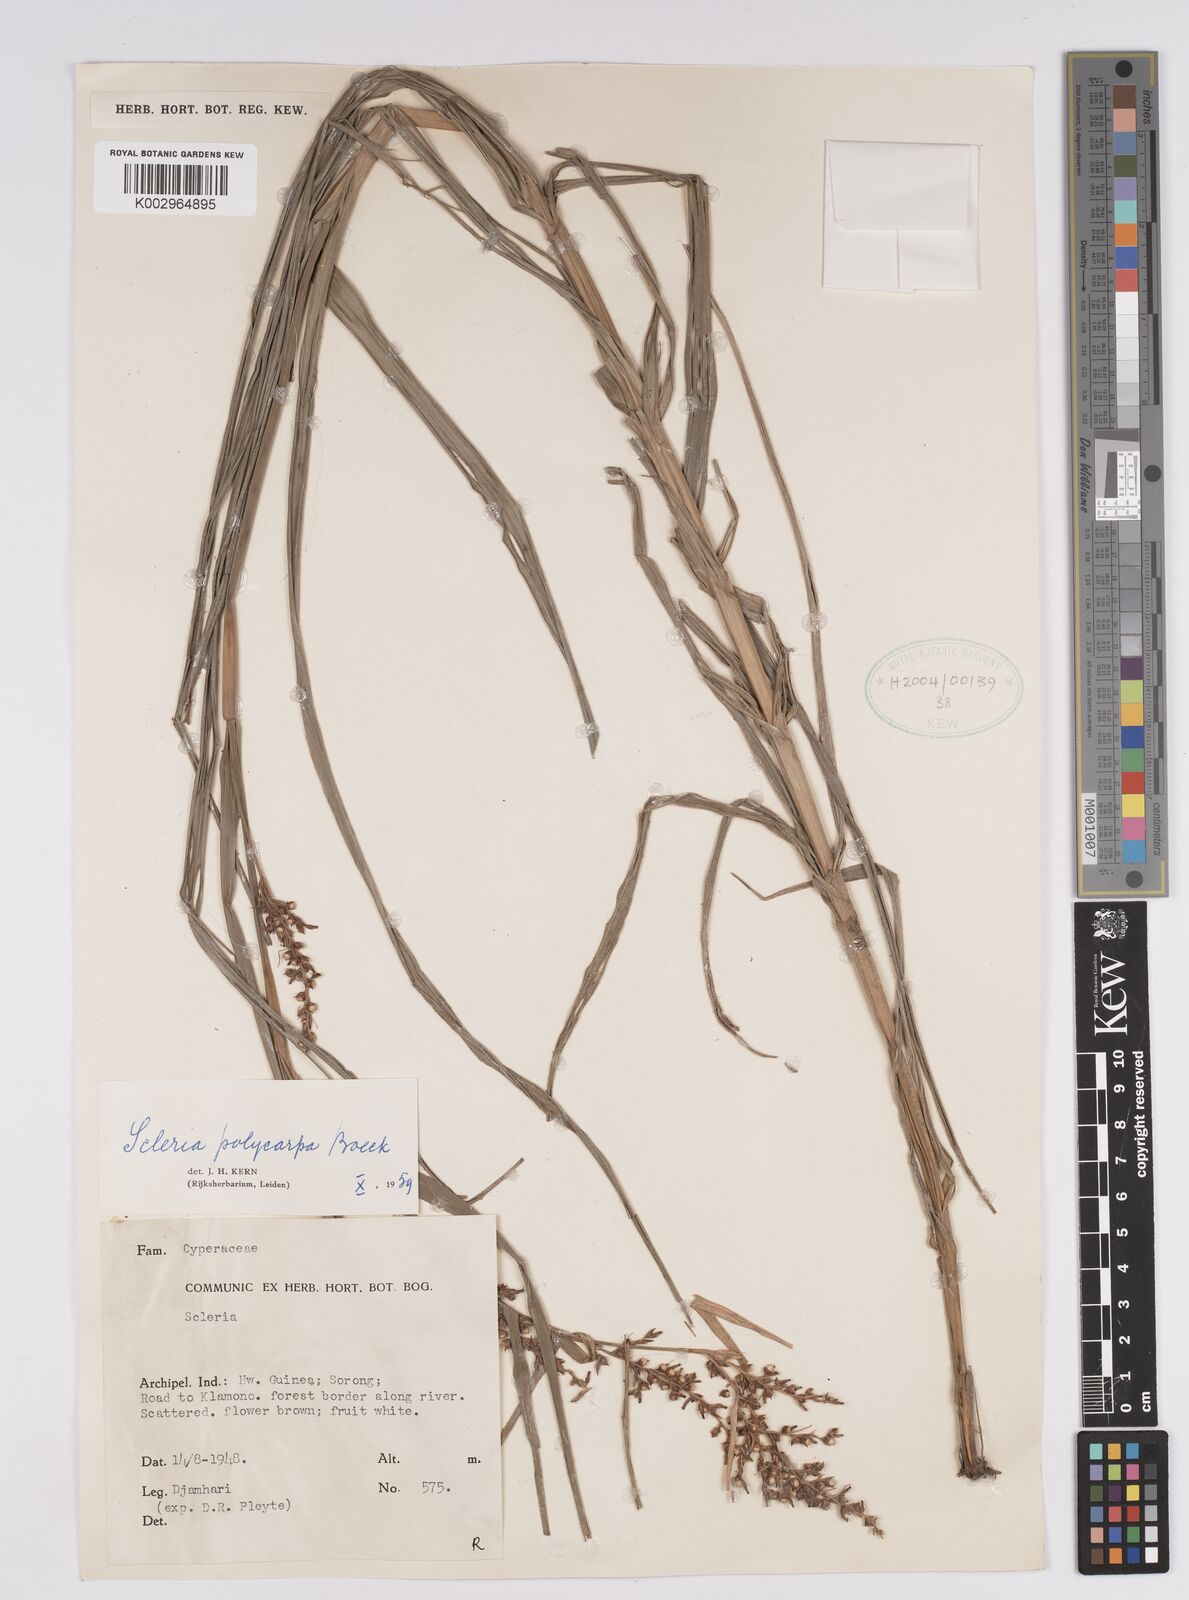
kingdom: Plantae
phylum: Tracheophyta
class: Liliopsida
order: Poales
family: Cyperaceae
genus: Scleria
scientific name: Scleria polycarpa
